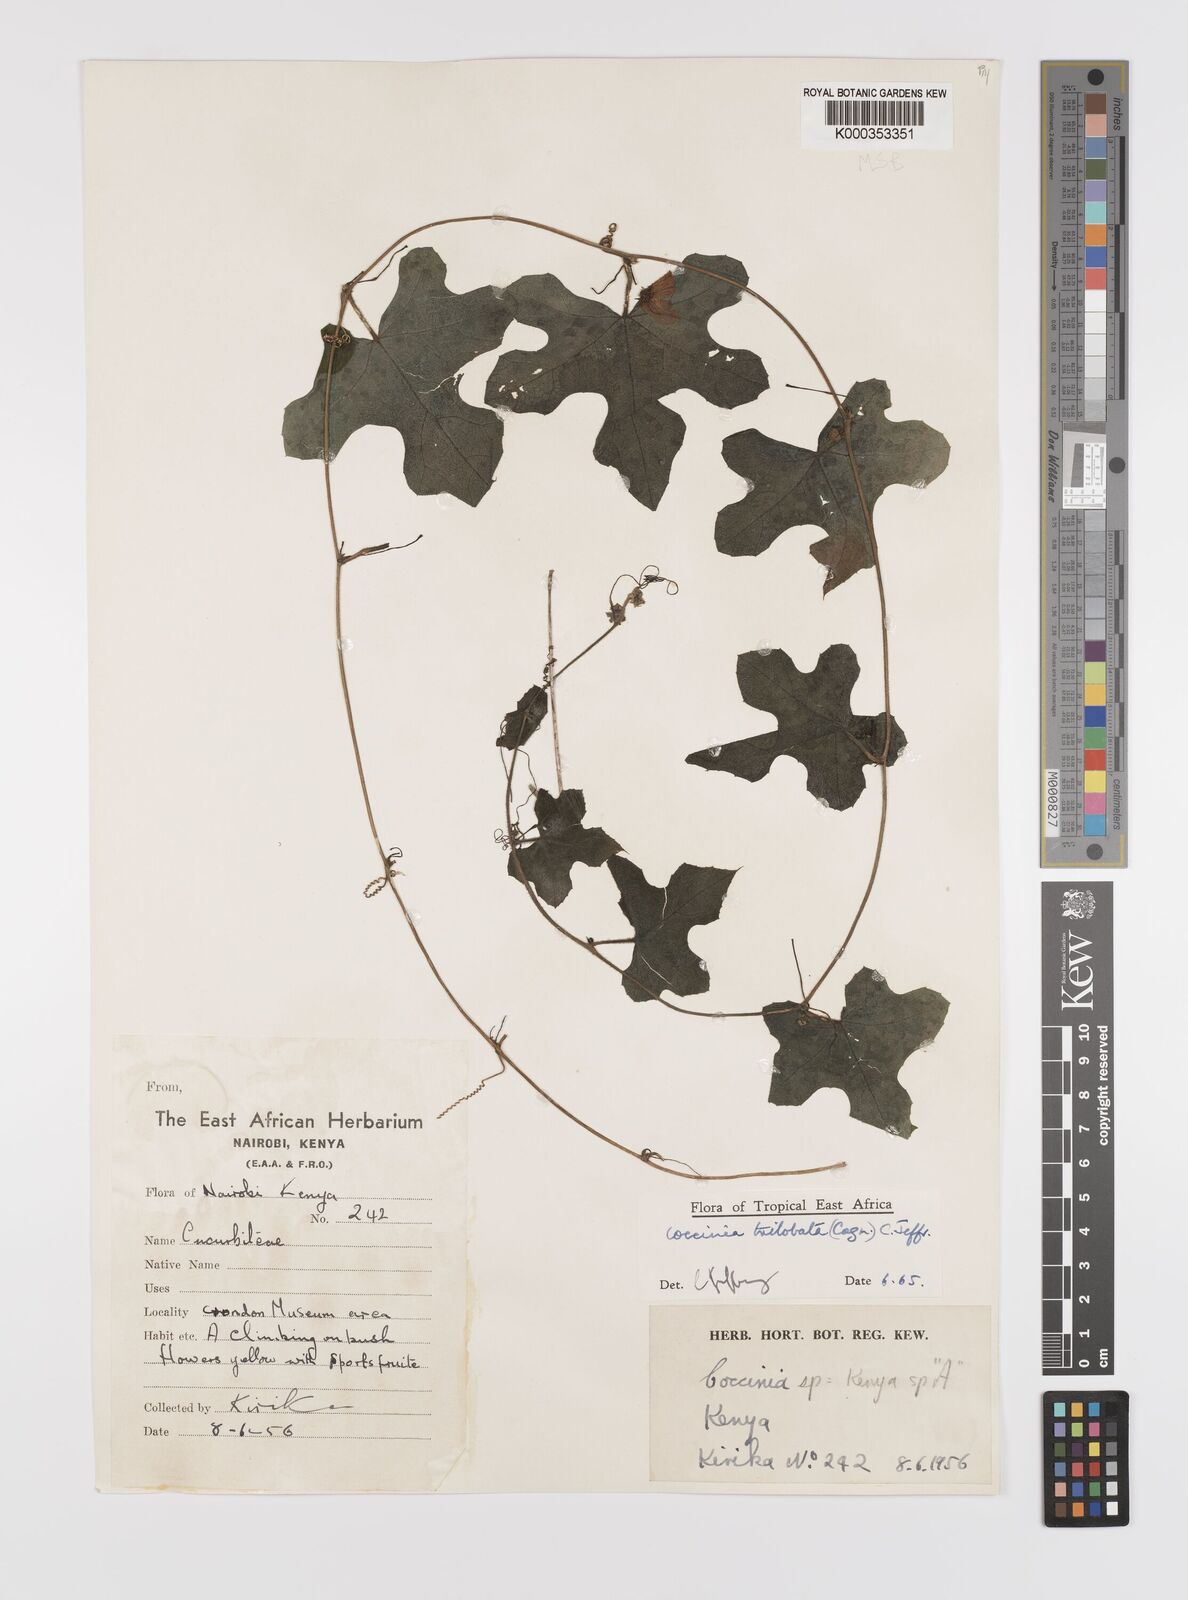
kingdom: Plantae
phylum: Tracheophyta
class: Magnoliopsida
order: Cucurbitales
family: Cucurbitaceae
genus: Coccinia
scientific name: Coccinia trilobata
